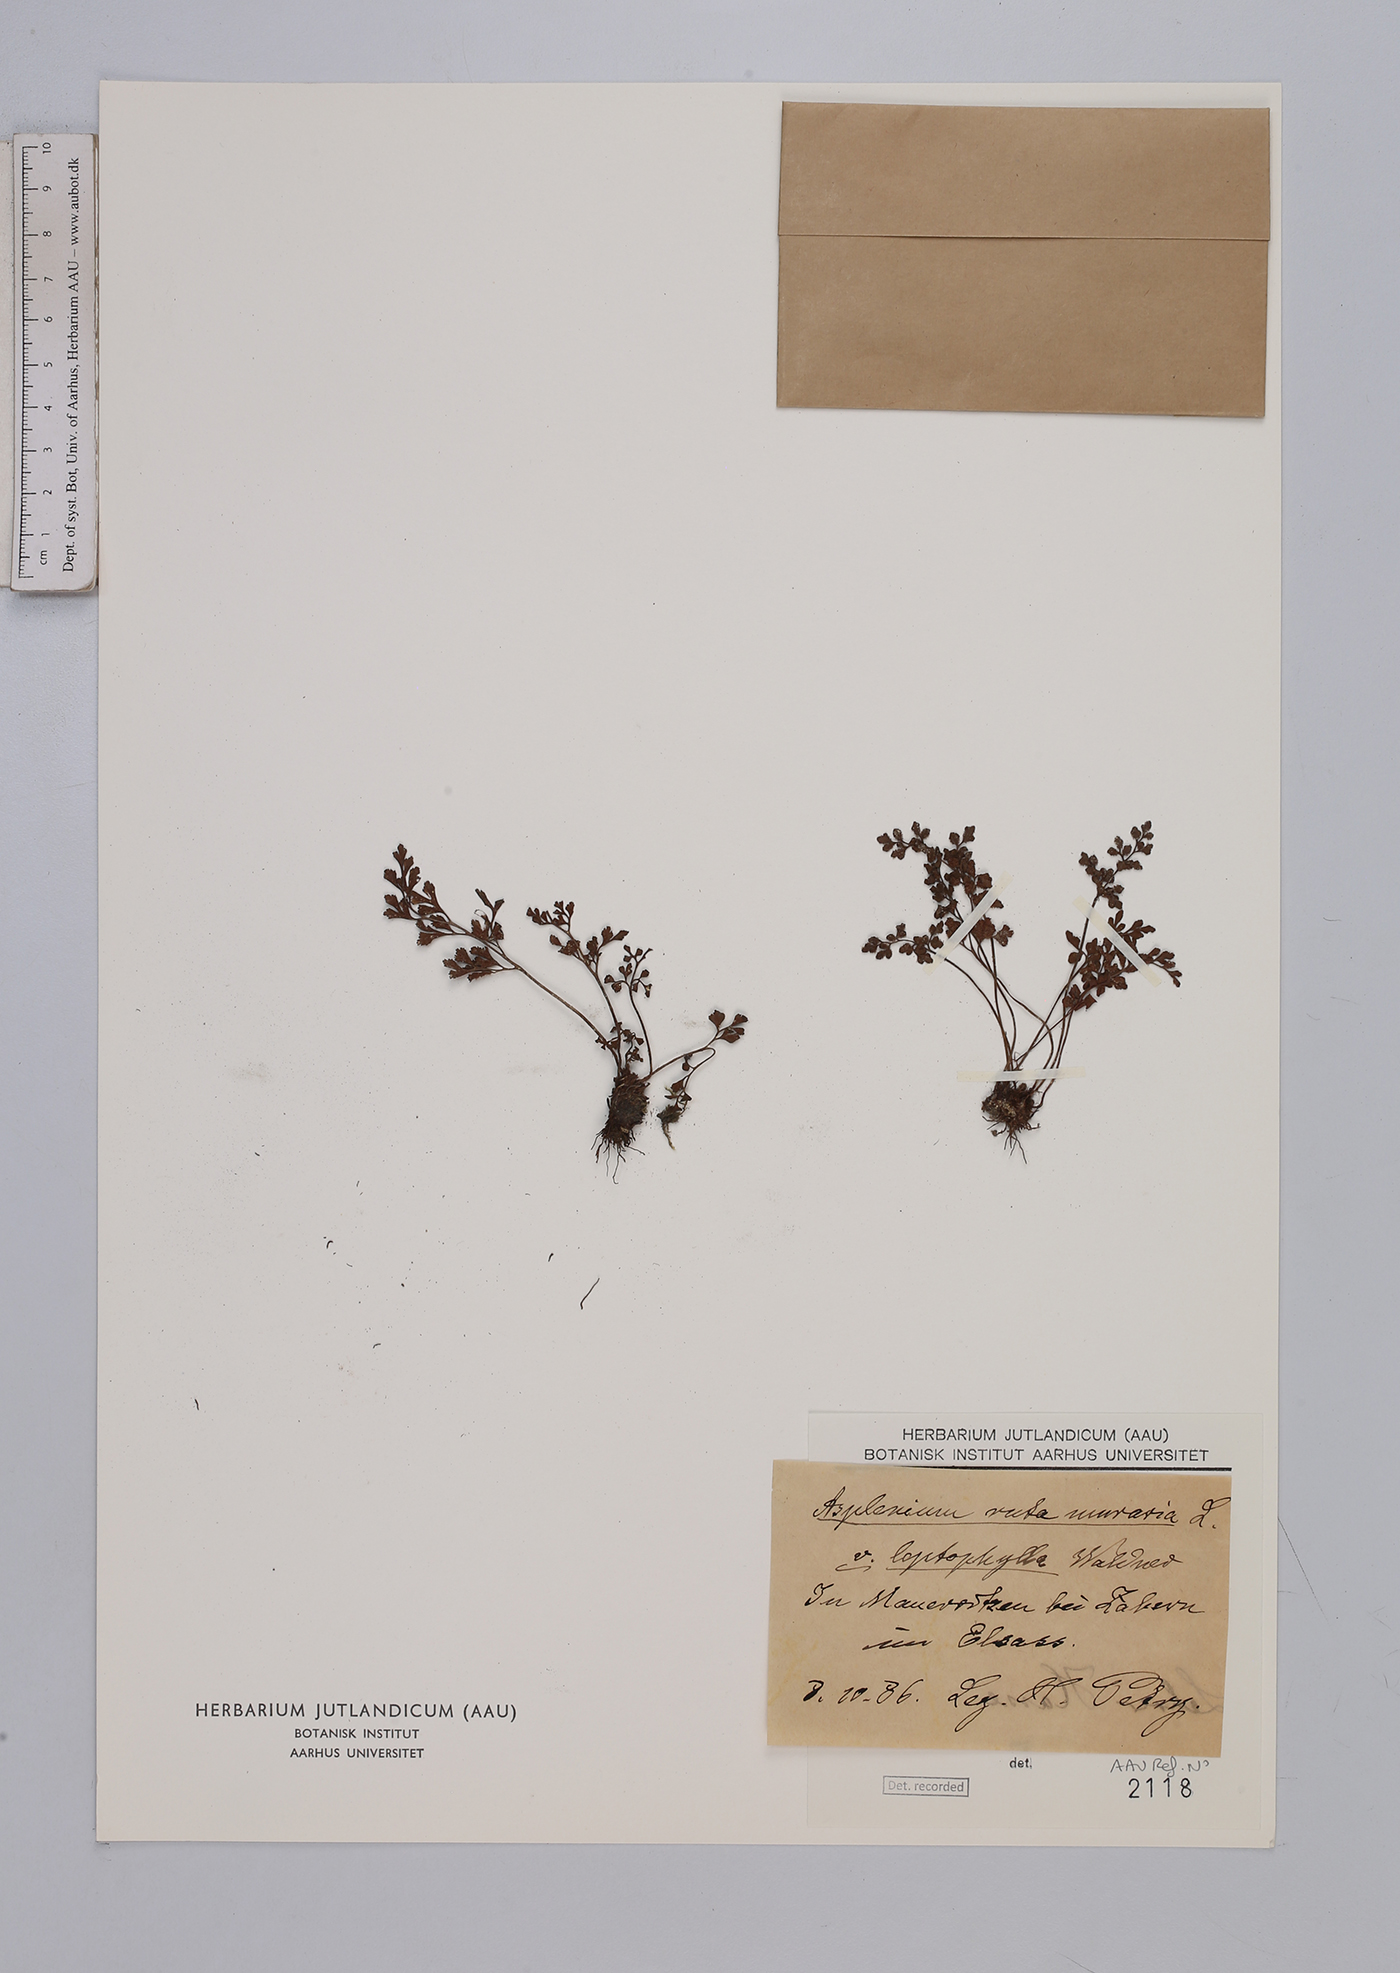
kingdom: Plantae
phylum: Tracheophyta
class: Polypodiopsida
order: Polypodiales
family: Aspleniaceae
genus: Asplenium
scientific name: Asplenium ruta-muraria
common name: Wall-rue
